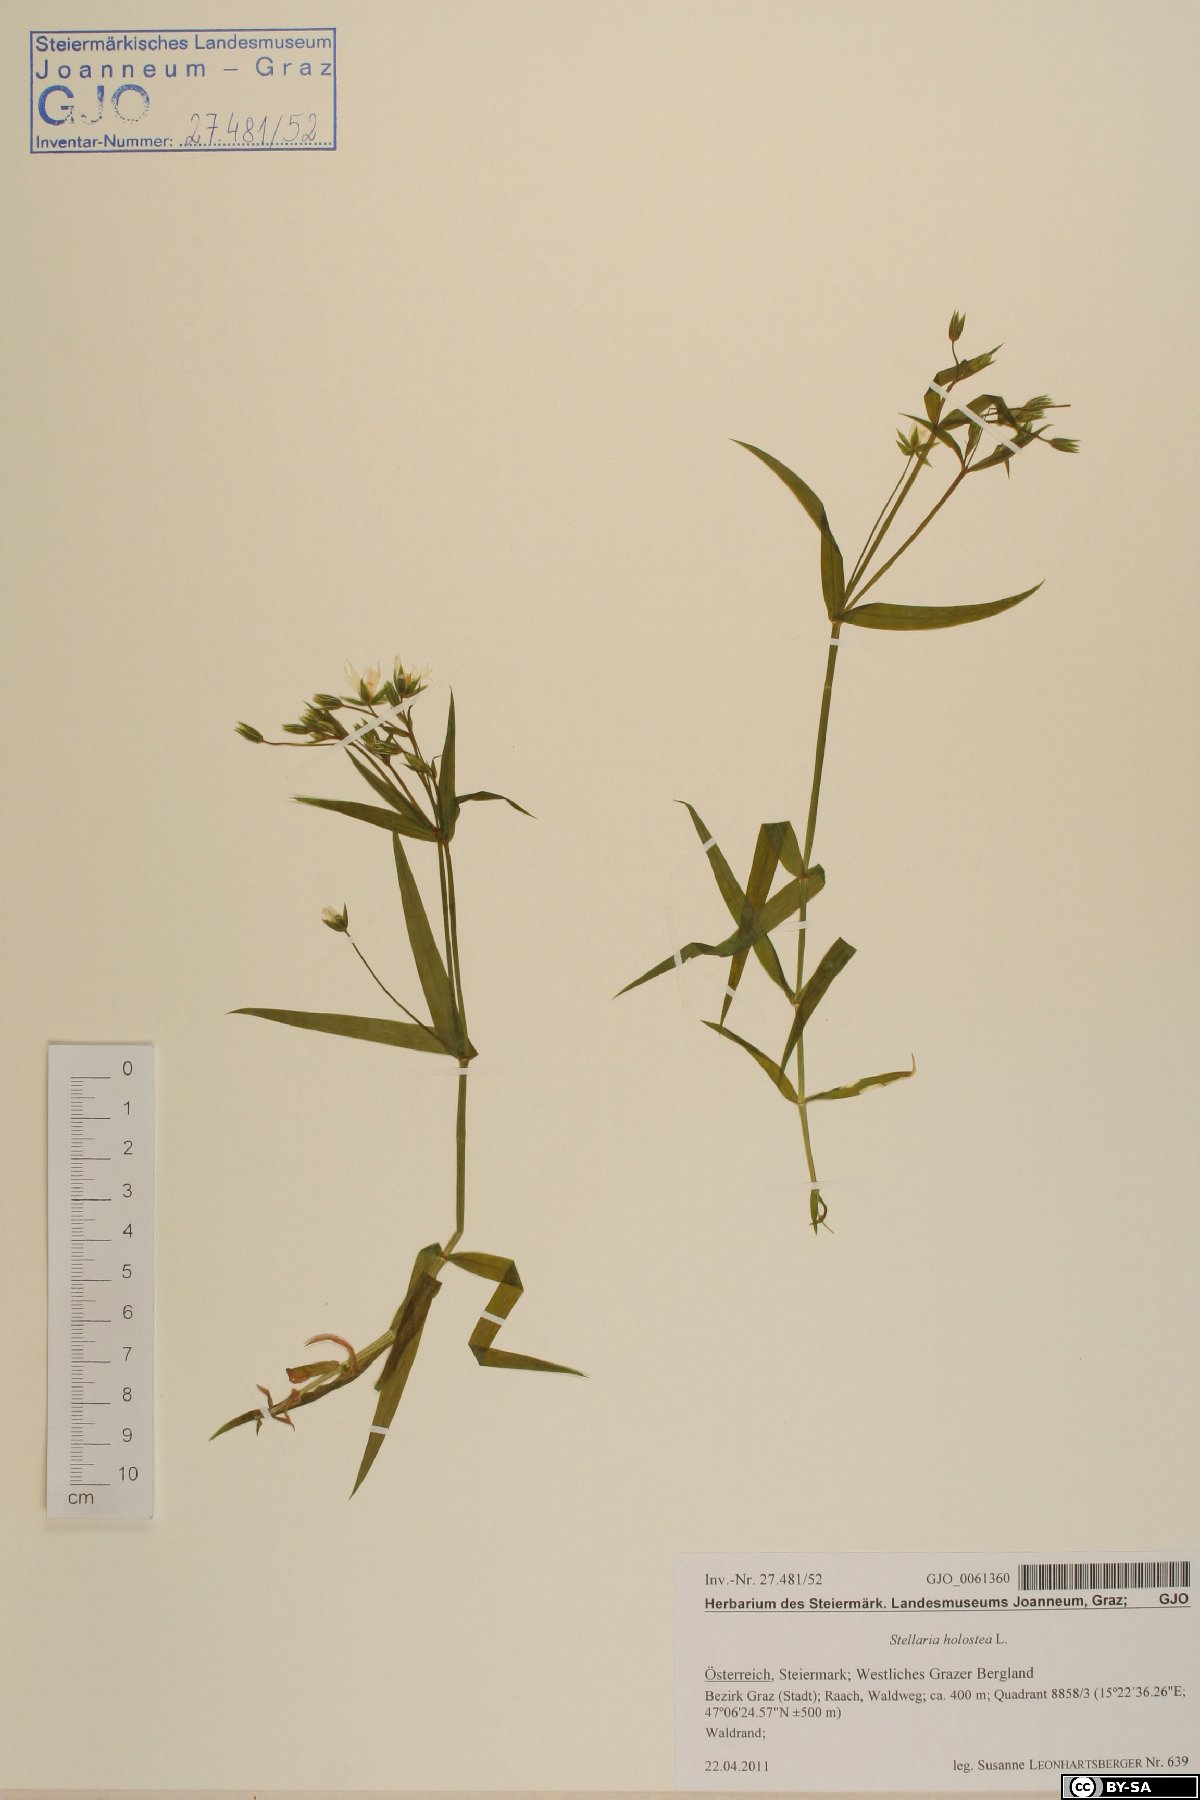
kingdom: Plantae
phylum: Tracheophyta
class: Magnoliopsida
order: Caryophyllales
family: Caryophyllaceae
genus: Rabelera
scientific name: Rabelera holostea
